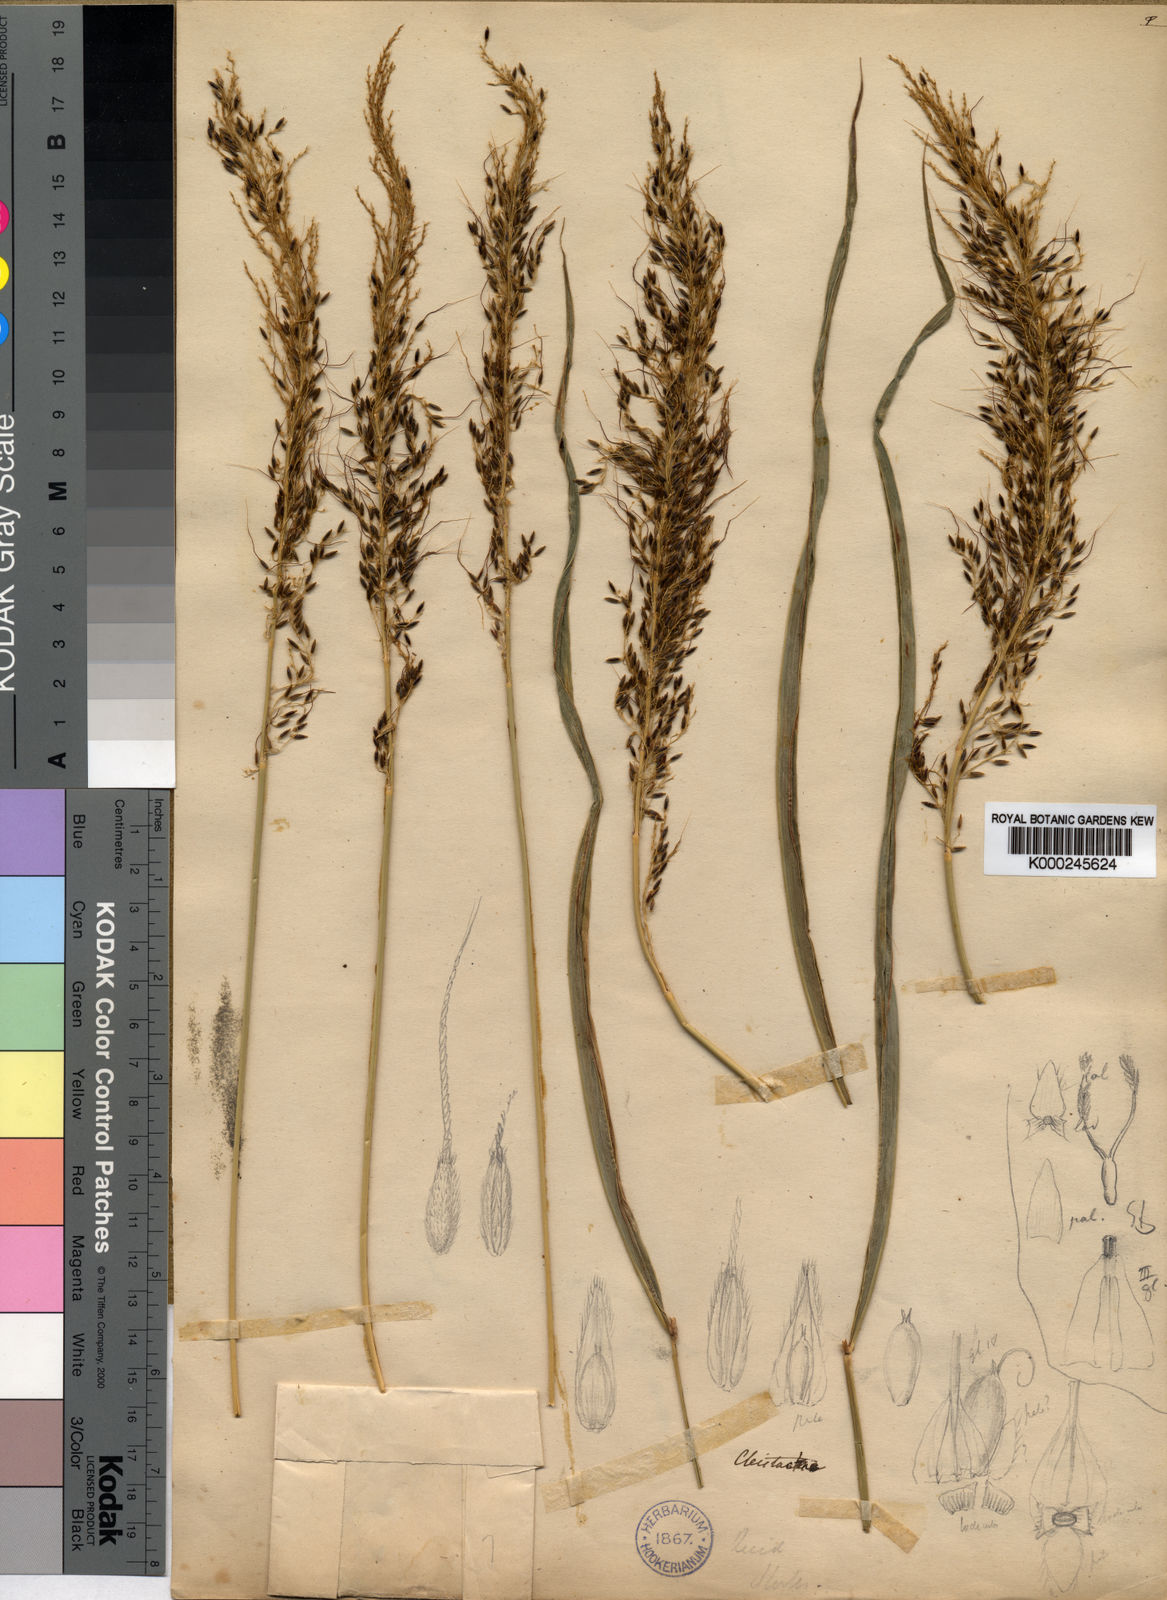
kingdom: Plantae
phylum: Tracheophyta
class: Liliopsida
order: Poales
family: Poaceae
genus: Cleistachne
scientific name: Cleistachne sorghoides
